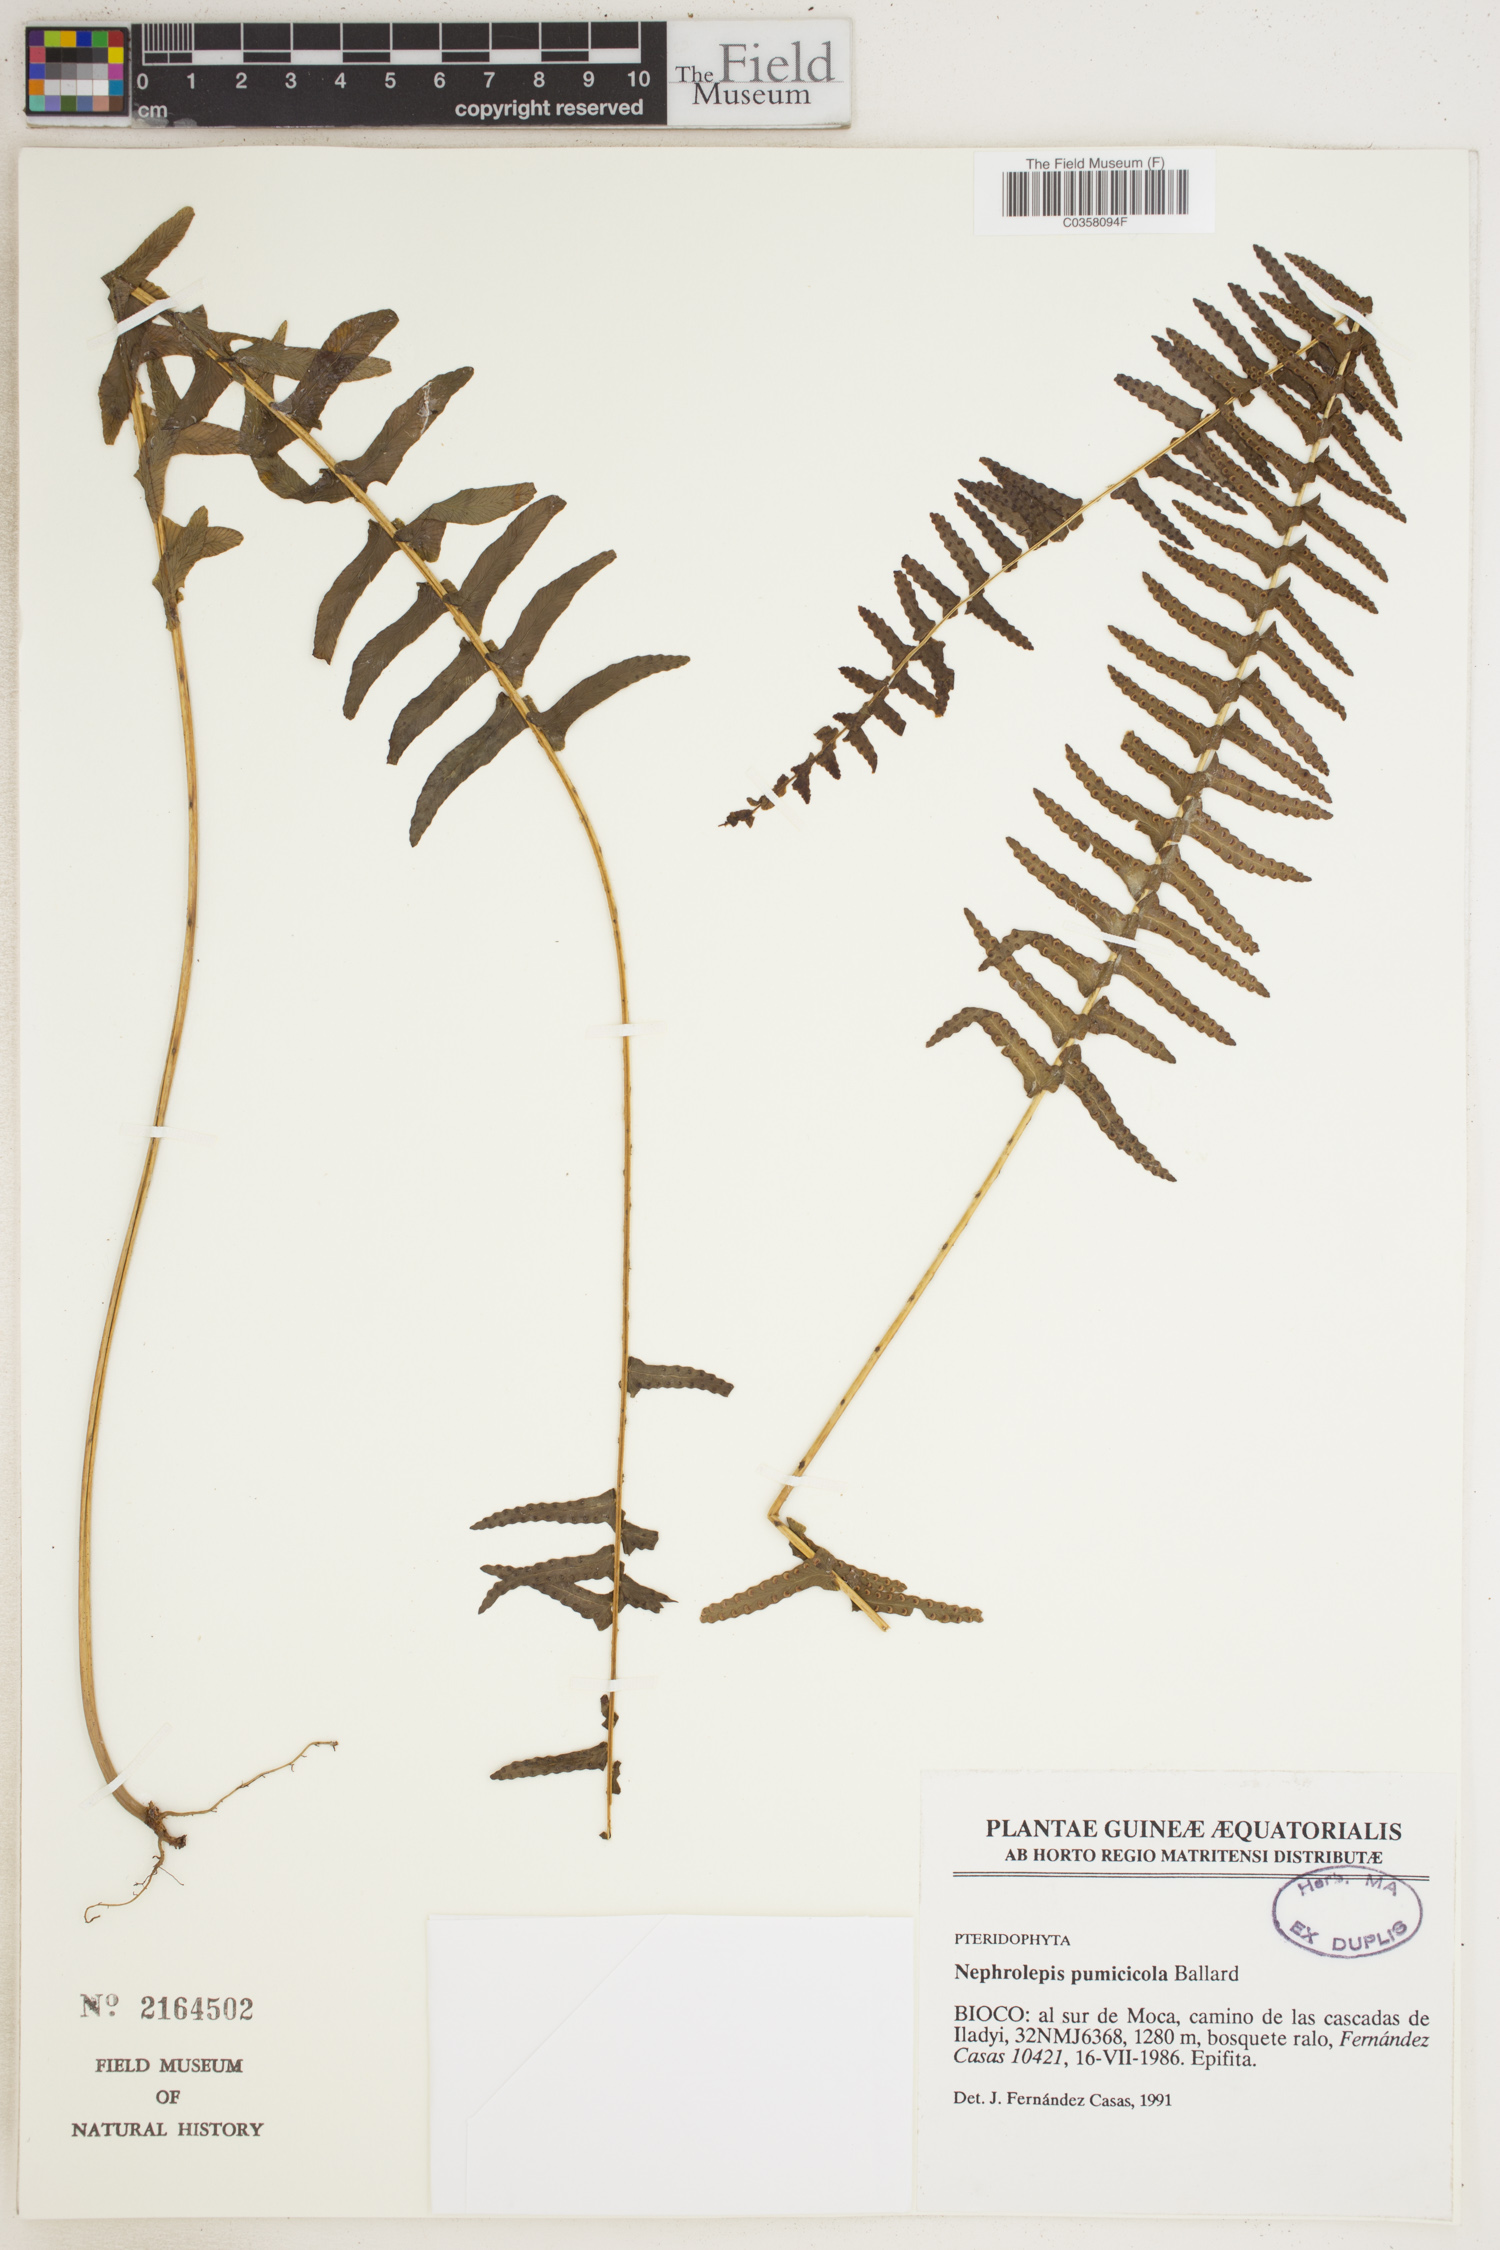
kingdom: Plantae
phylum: Tracheophyta
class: Polypodiopsida
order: Polypodiales
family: Nephrolepidaceae
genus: Nephrolepis
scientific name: Nephrolepis cordifolia
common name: Narrow swordfern
